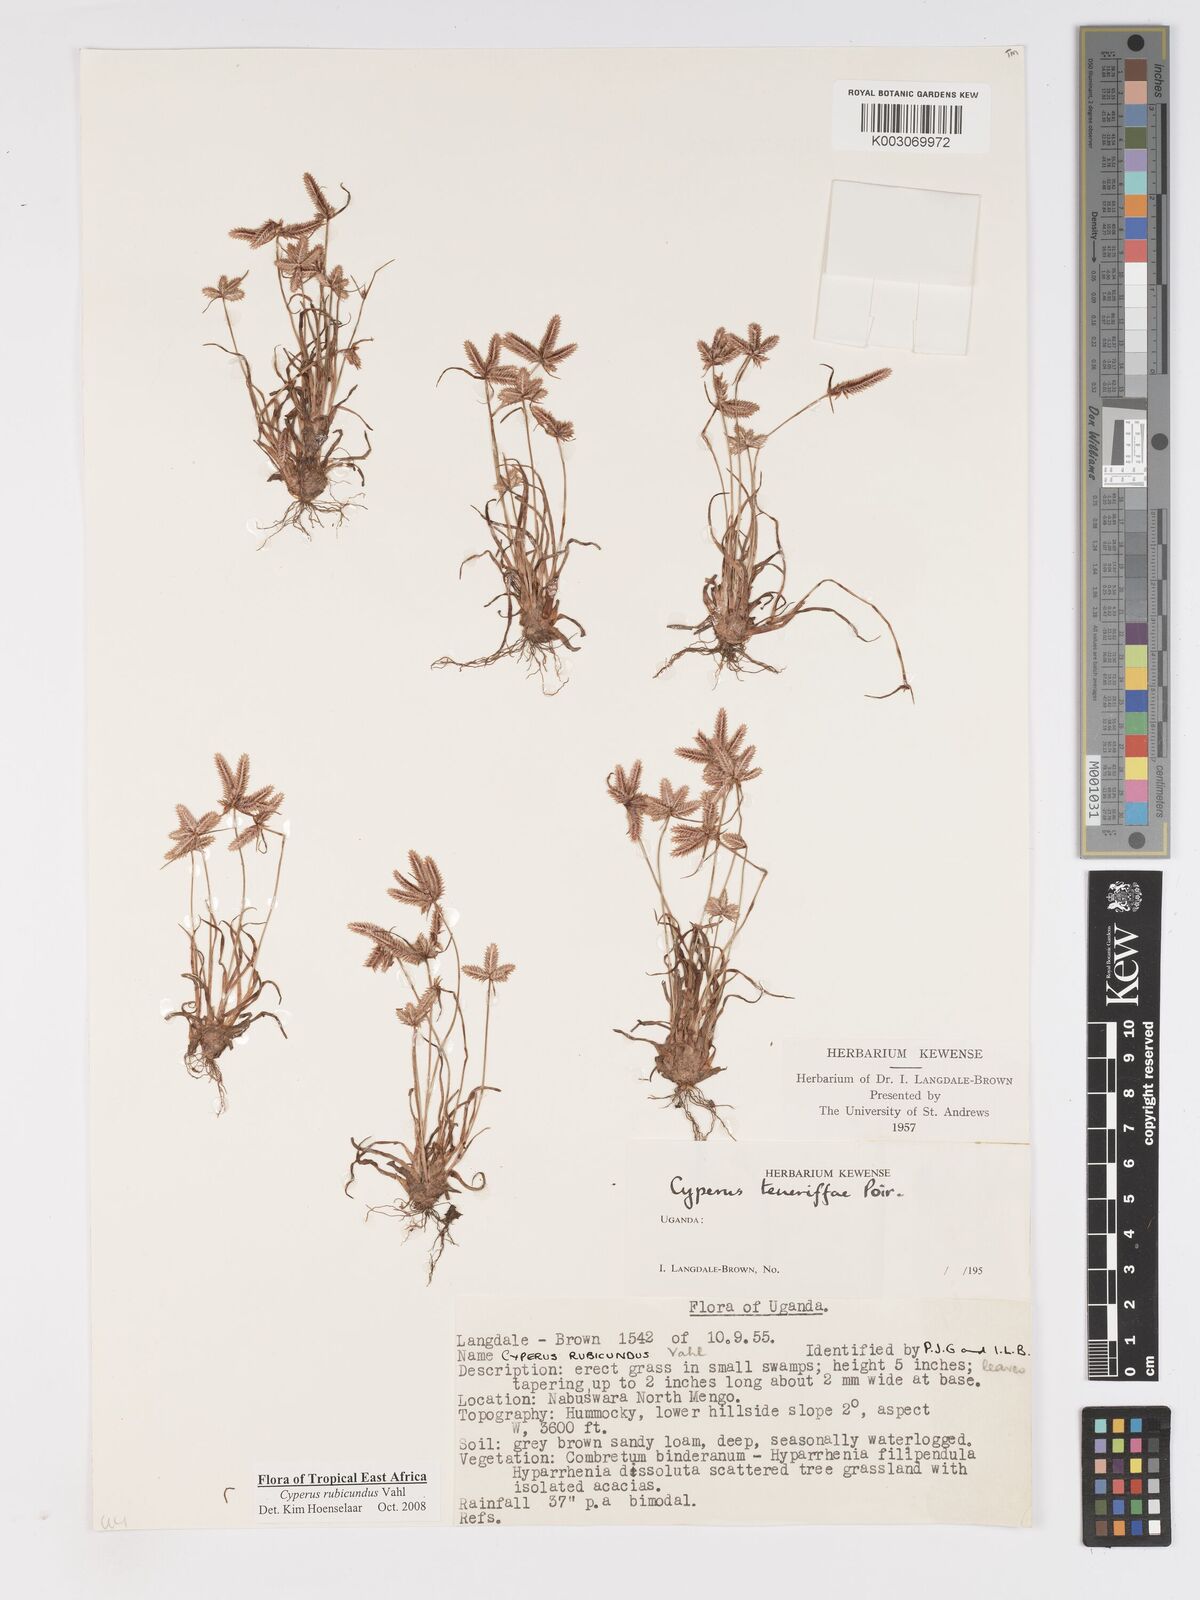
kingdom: Plantae
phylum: Tracheophyta
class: Liliopsida
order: Poales
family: Cyperaceae
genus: Cyperus
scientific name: Cyperus rubicundus
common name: Coco-grass
